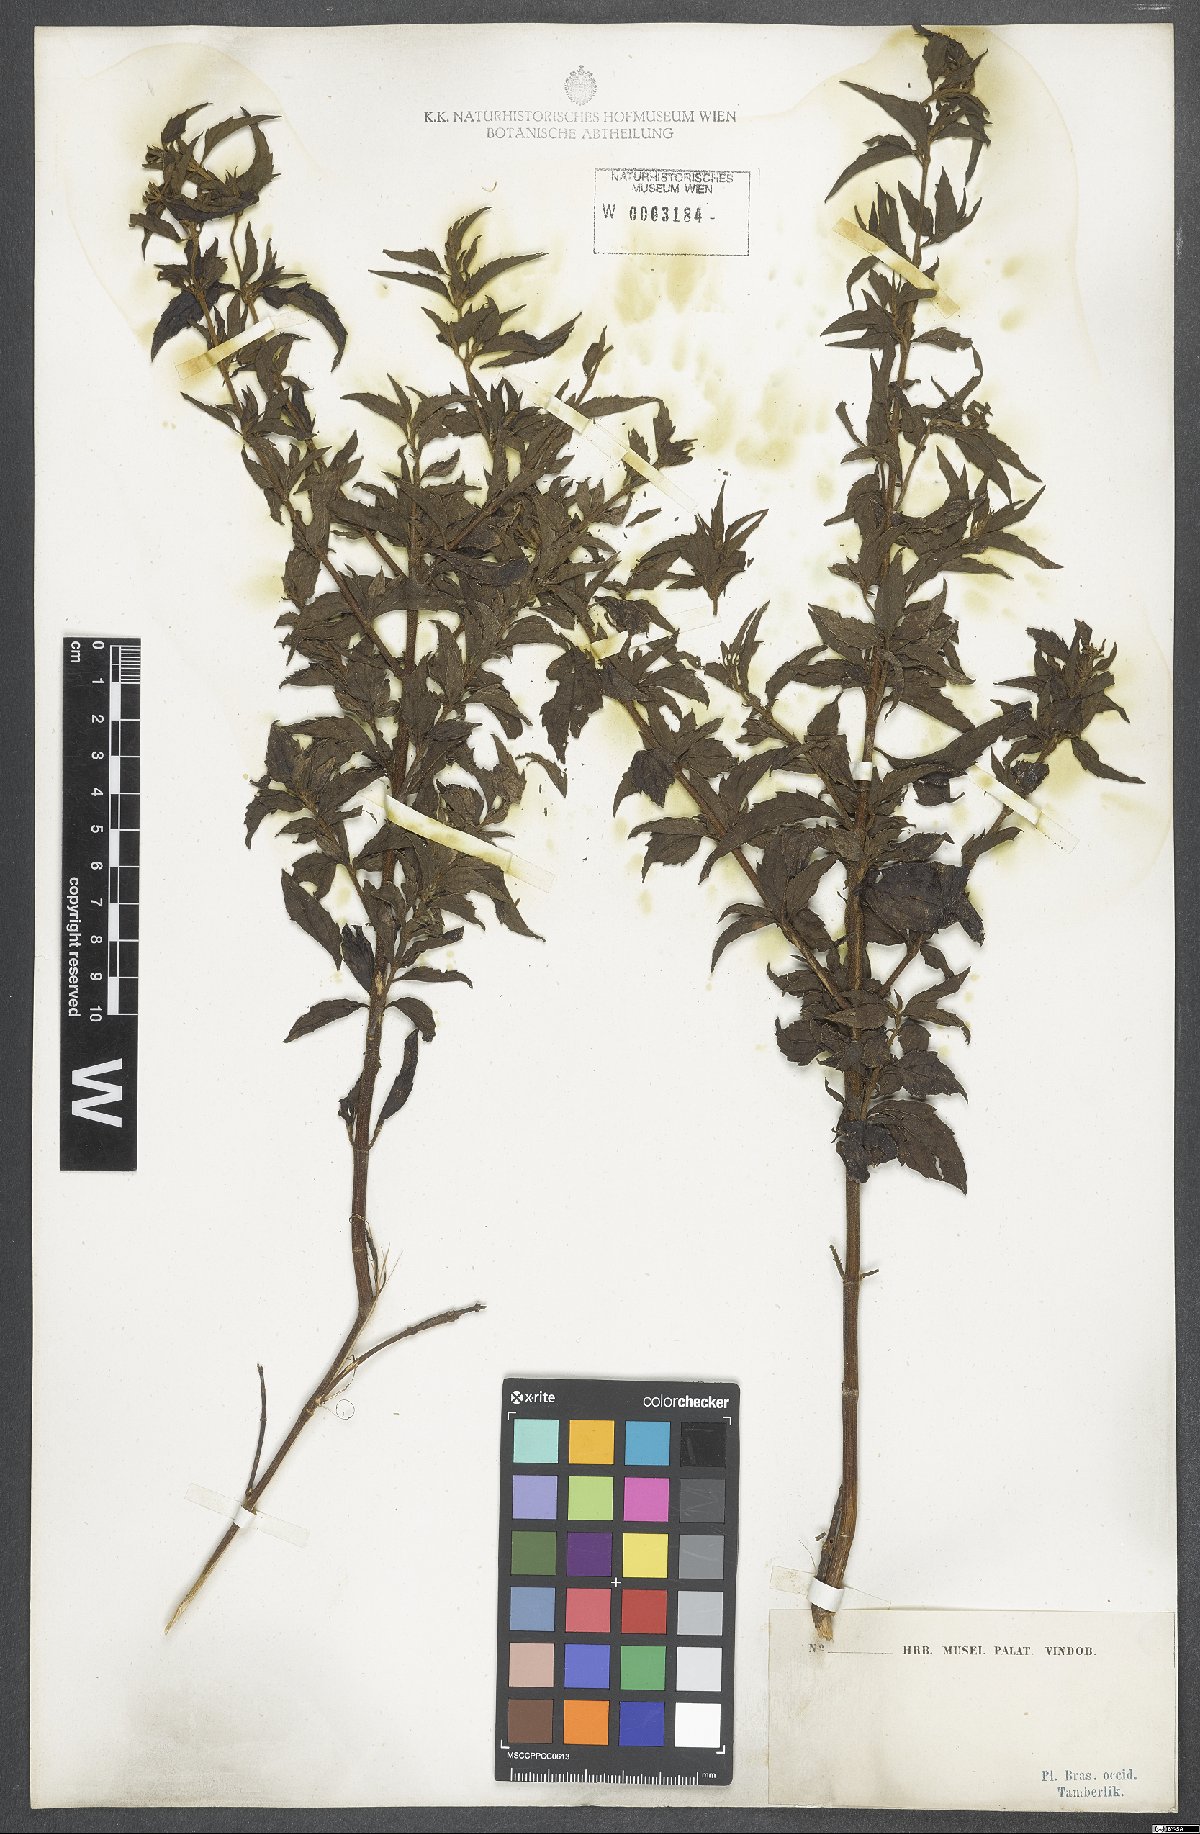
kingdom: Plantae
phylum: Tracheophyta
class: Magnoliopsida
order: Asterales
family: Asteraceae
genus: Eupatorium
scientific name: Eupatorium
